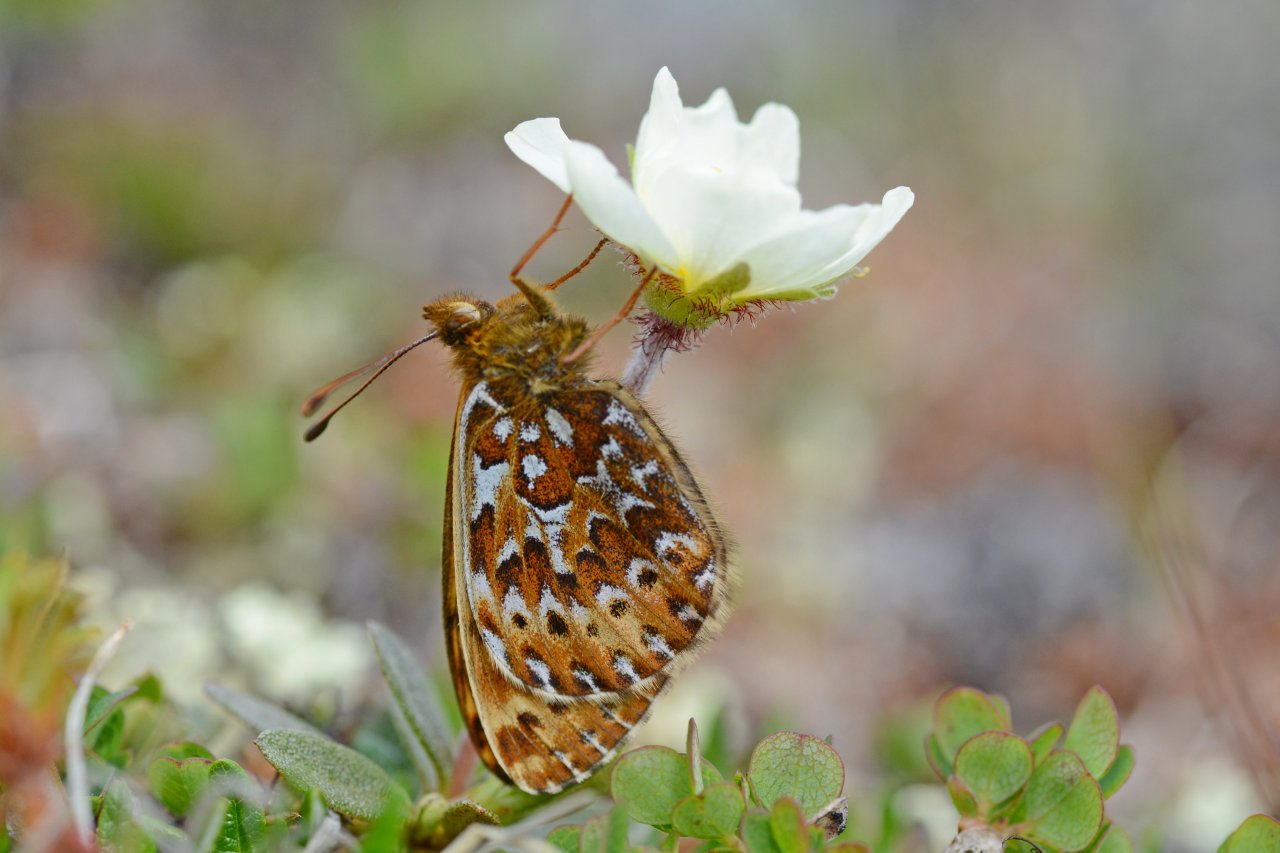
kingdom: Animalia
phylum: Arthropoda
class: Insecta
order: Lepidoptera
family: Nymphalidae
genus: Clossiana
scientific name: Clossiana polaris
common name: Polaris Fritillary
